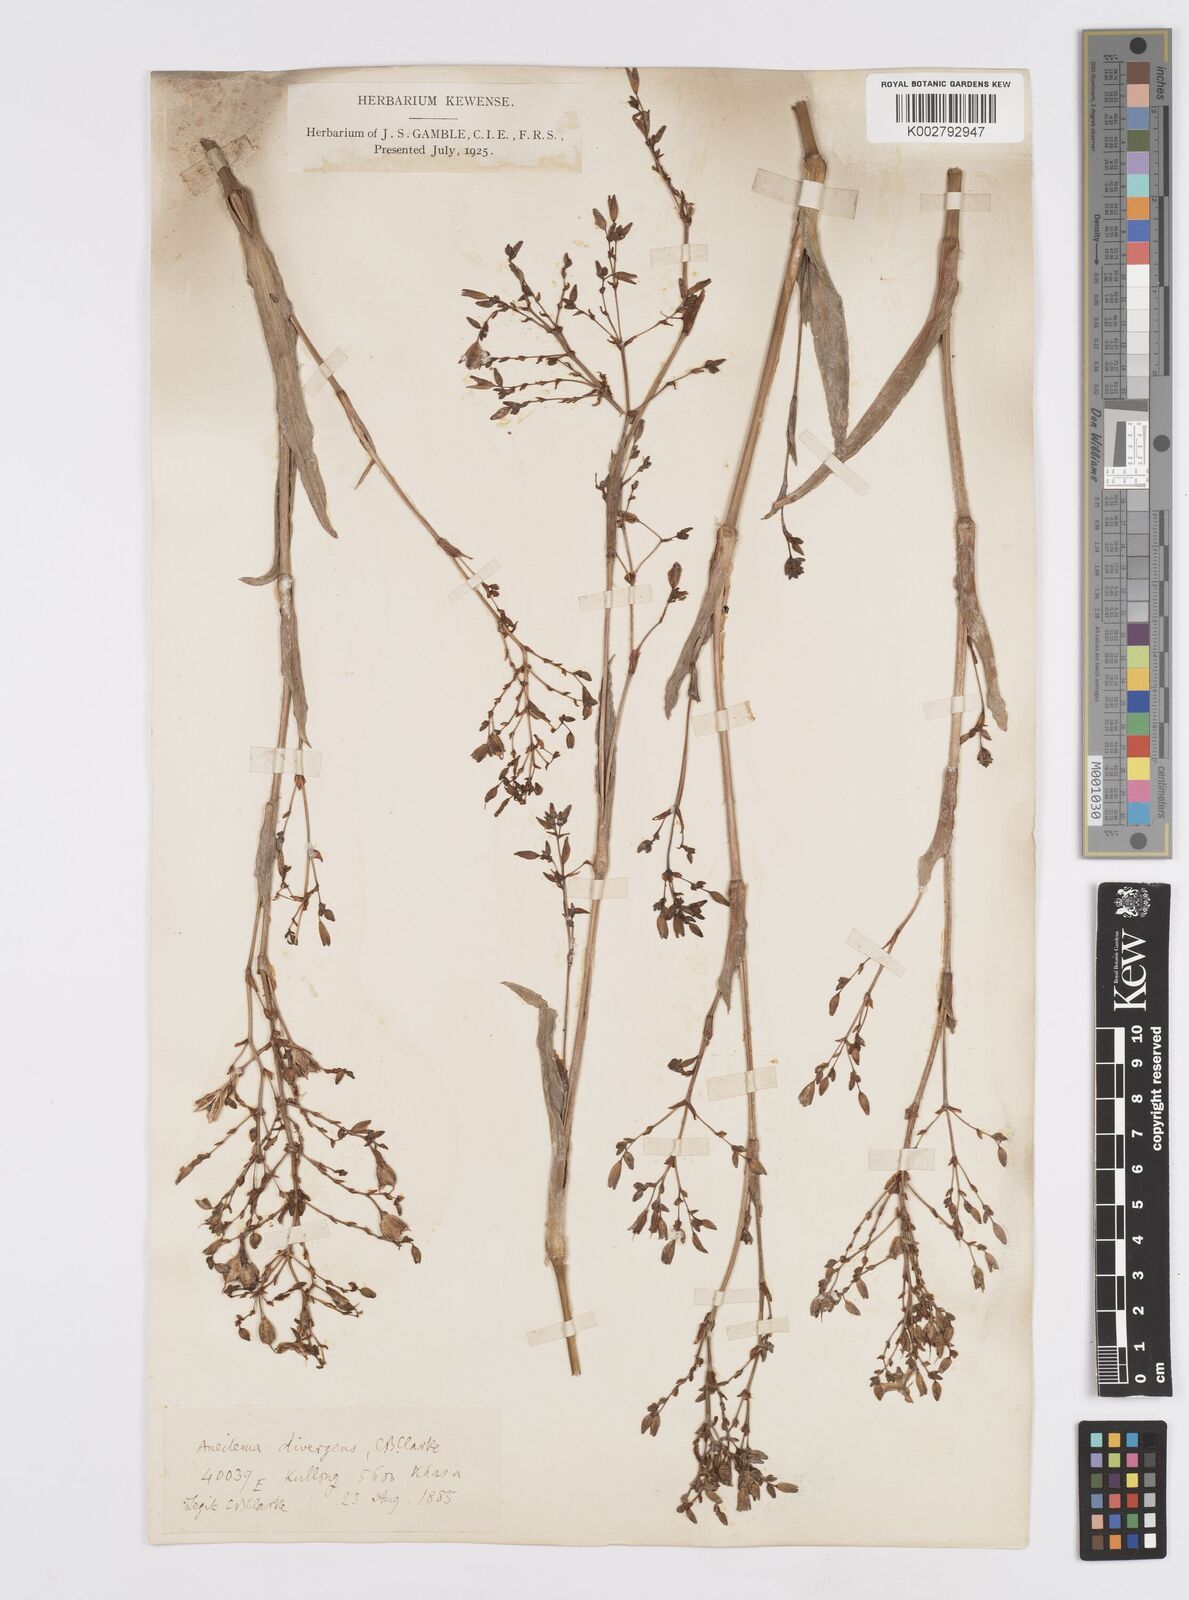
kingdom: Plantae
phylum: Tracheophyta
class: Liliopsida
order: Commelinales
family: Commelinaceae
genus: Murdannia
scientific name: Murdannia divergens
